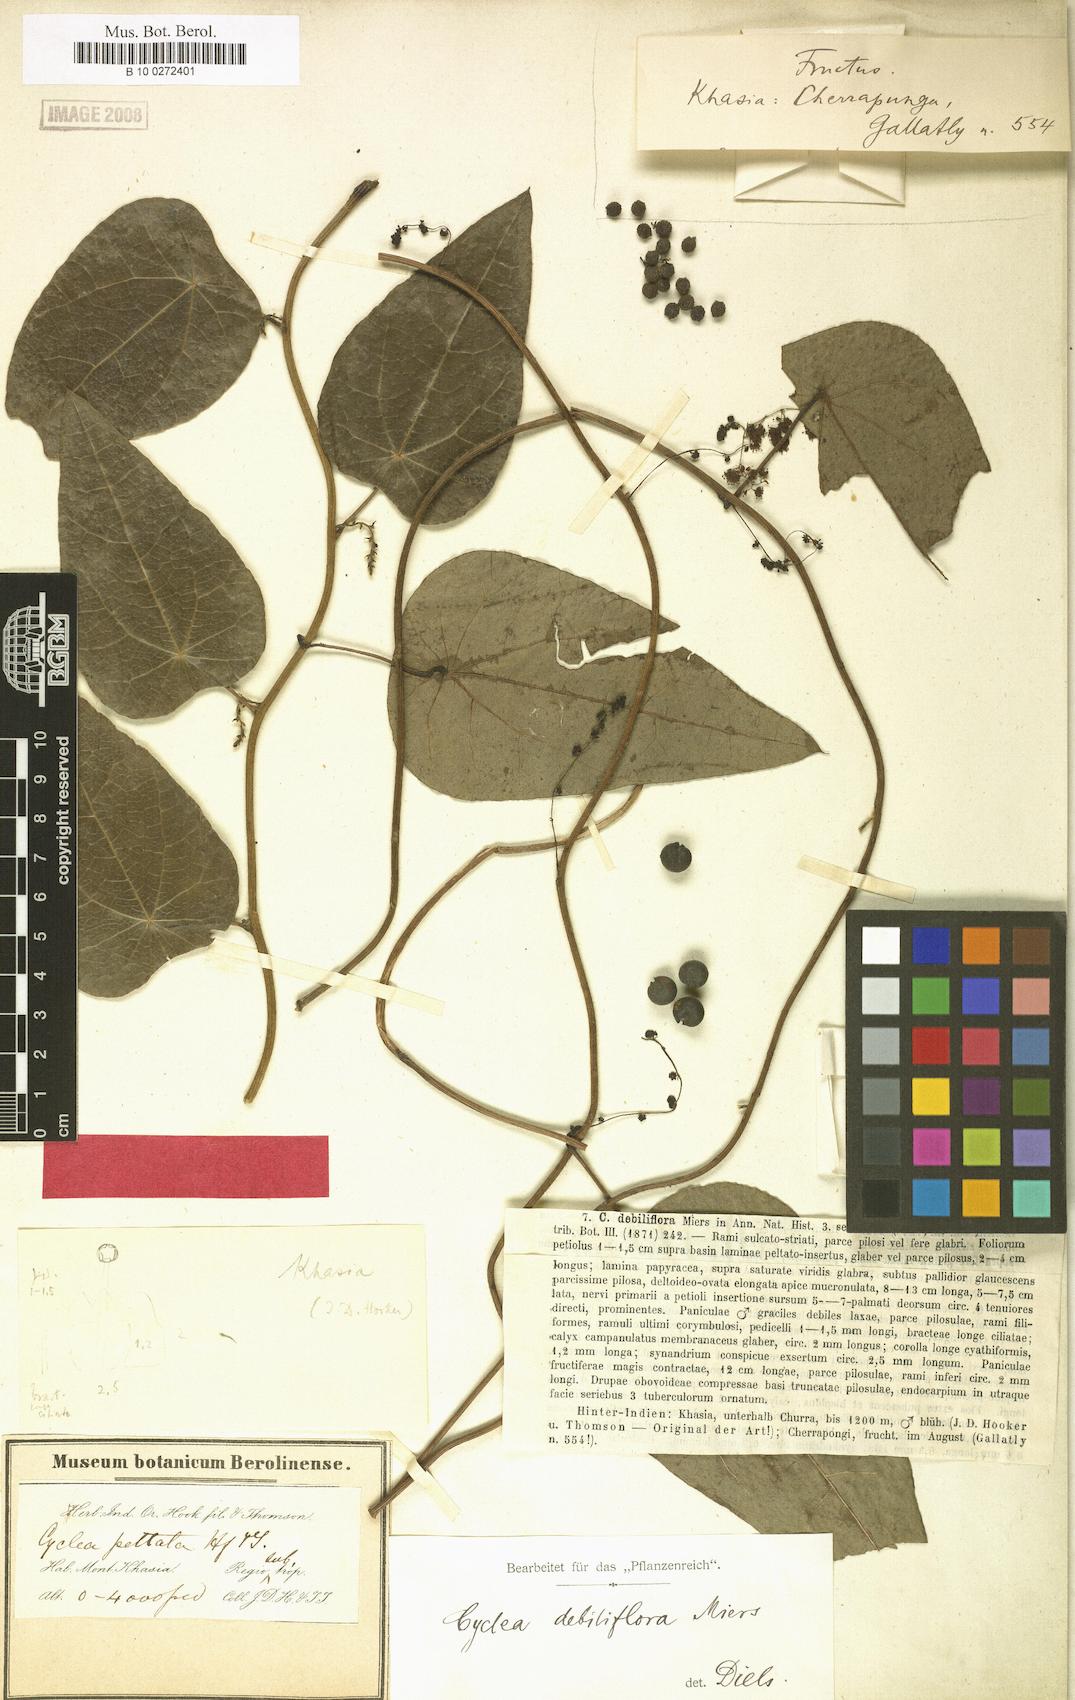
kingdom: Plantae
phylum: Tracheophyta
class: Magnoliopsida
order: Ranunculales
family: Menispermaceae
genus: Cyclea
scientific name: Cyclea debiliflora
